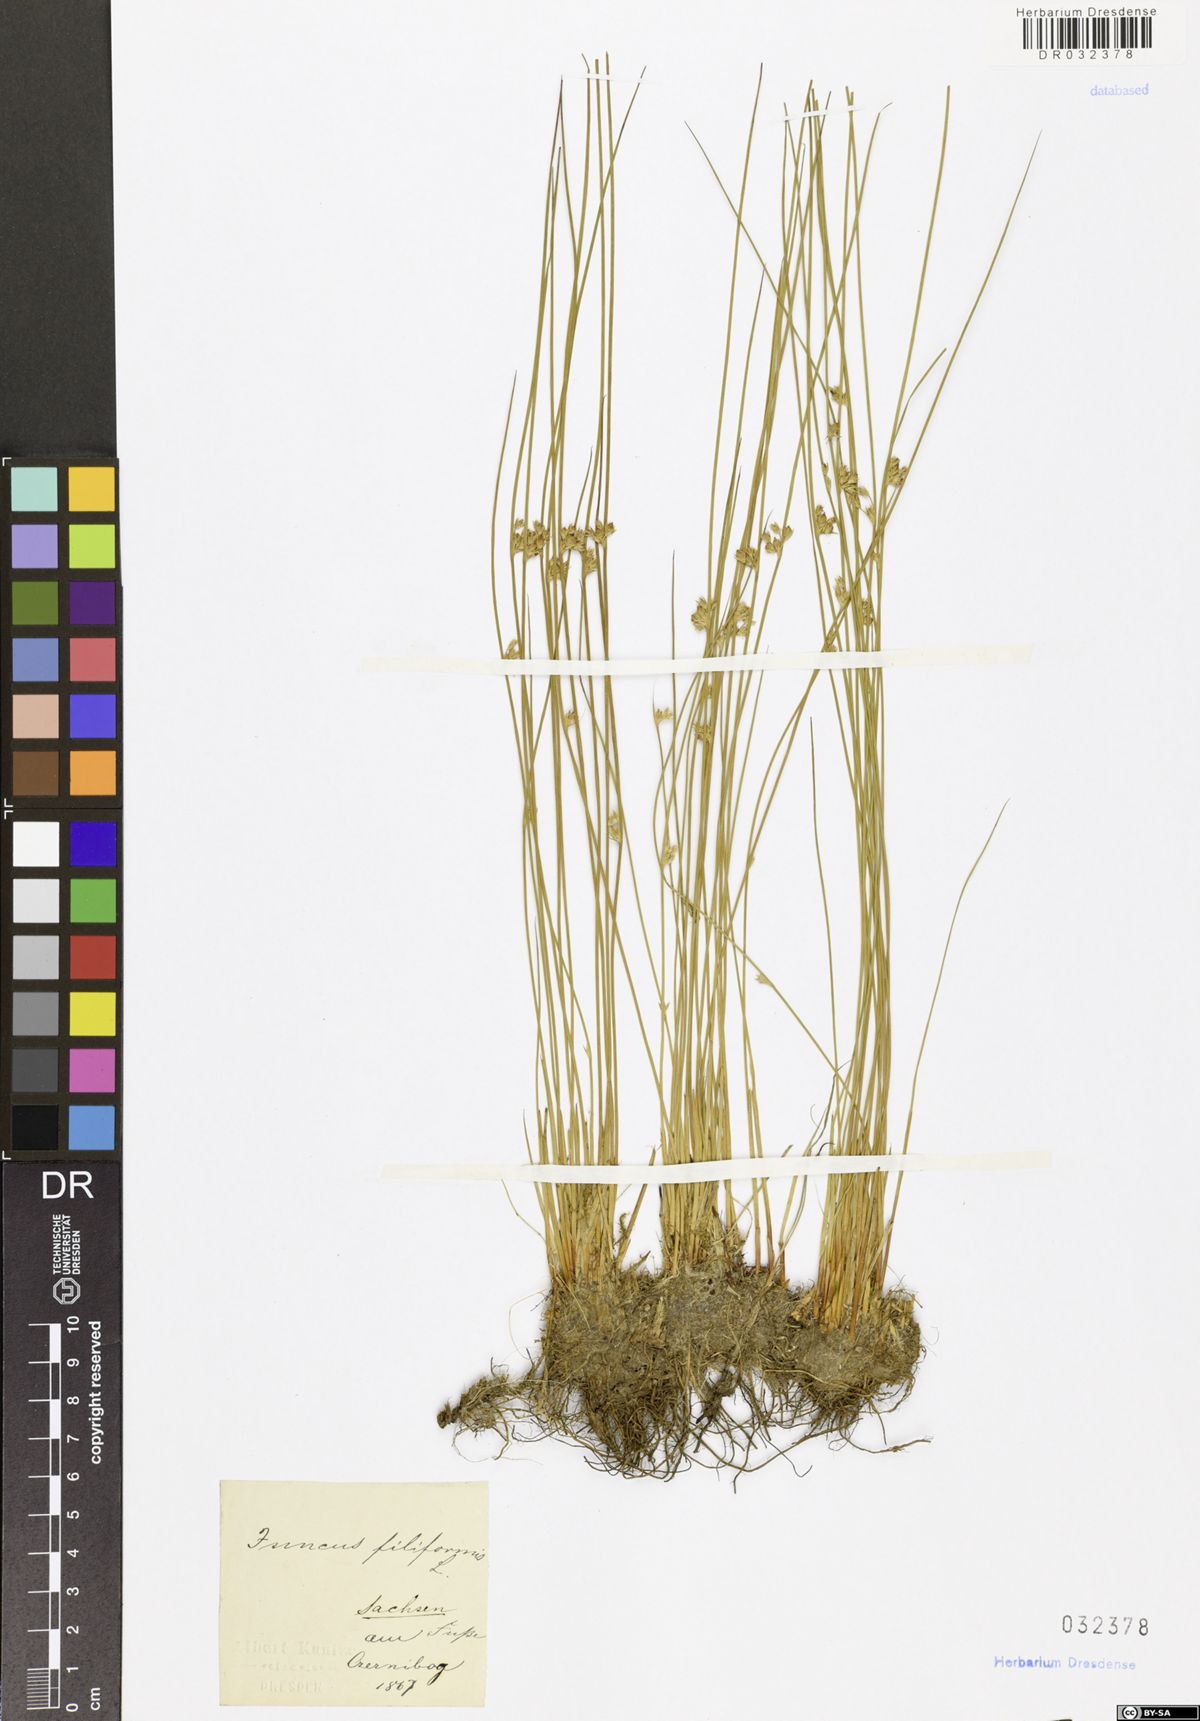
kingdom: Plantae
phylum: Tracheophyta
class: Liliopsida
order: Poales
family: Juncaceae
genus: Juncus
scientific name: Juncus inflexus
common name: Hard rush
